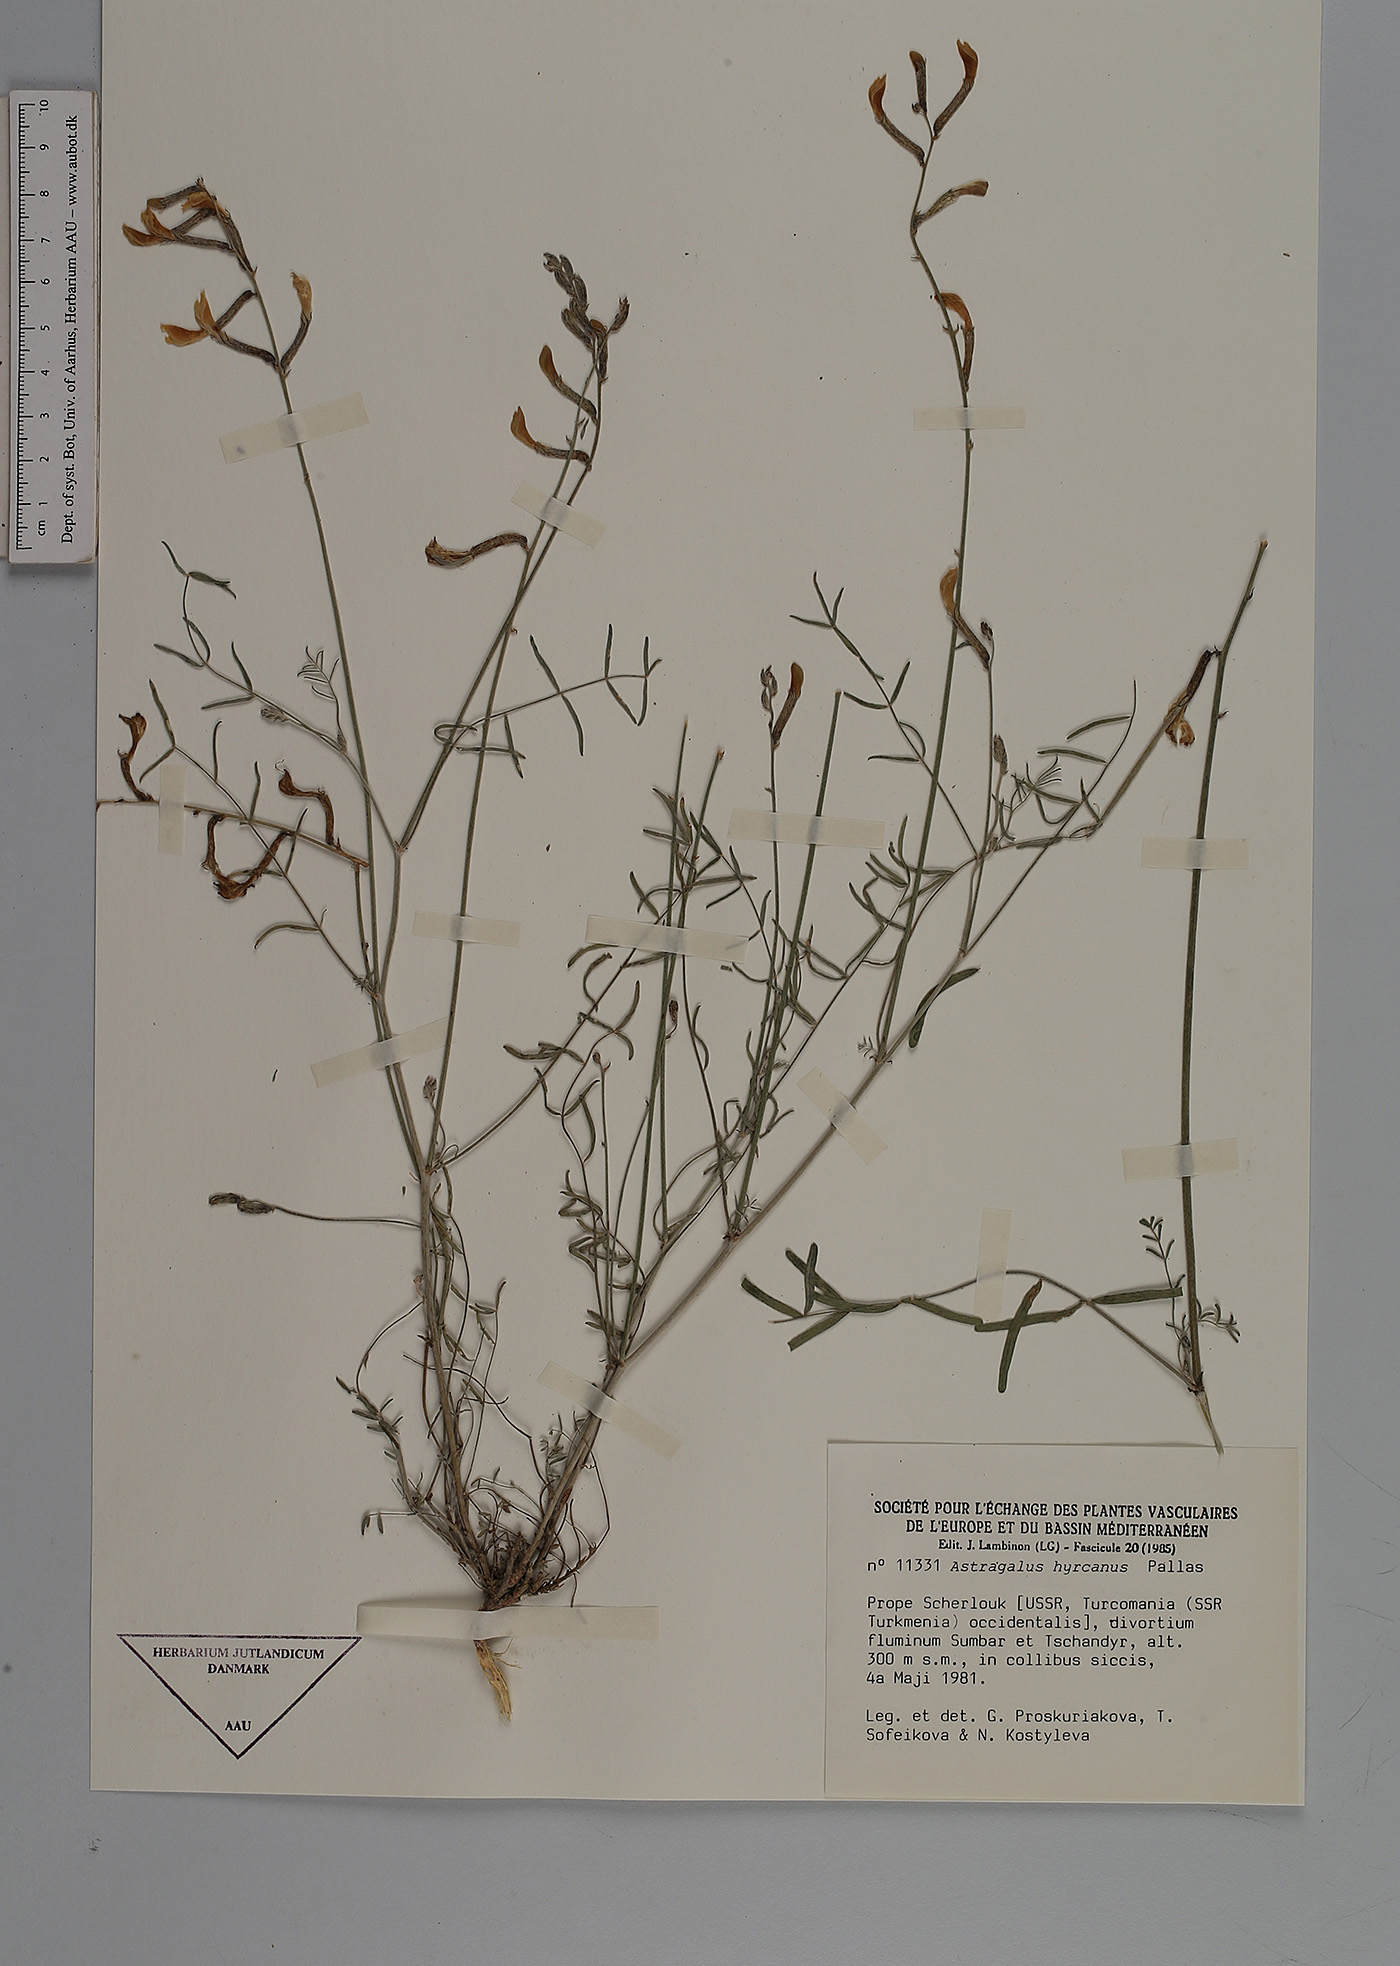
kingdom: Plantae
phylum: Tracheophyta
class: Magnoliopsida
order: Fabales
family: Fabaceae
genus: Astragalus
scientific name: Astragalus hyrcanus
